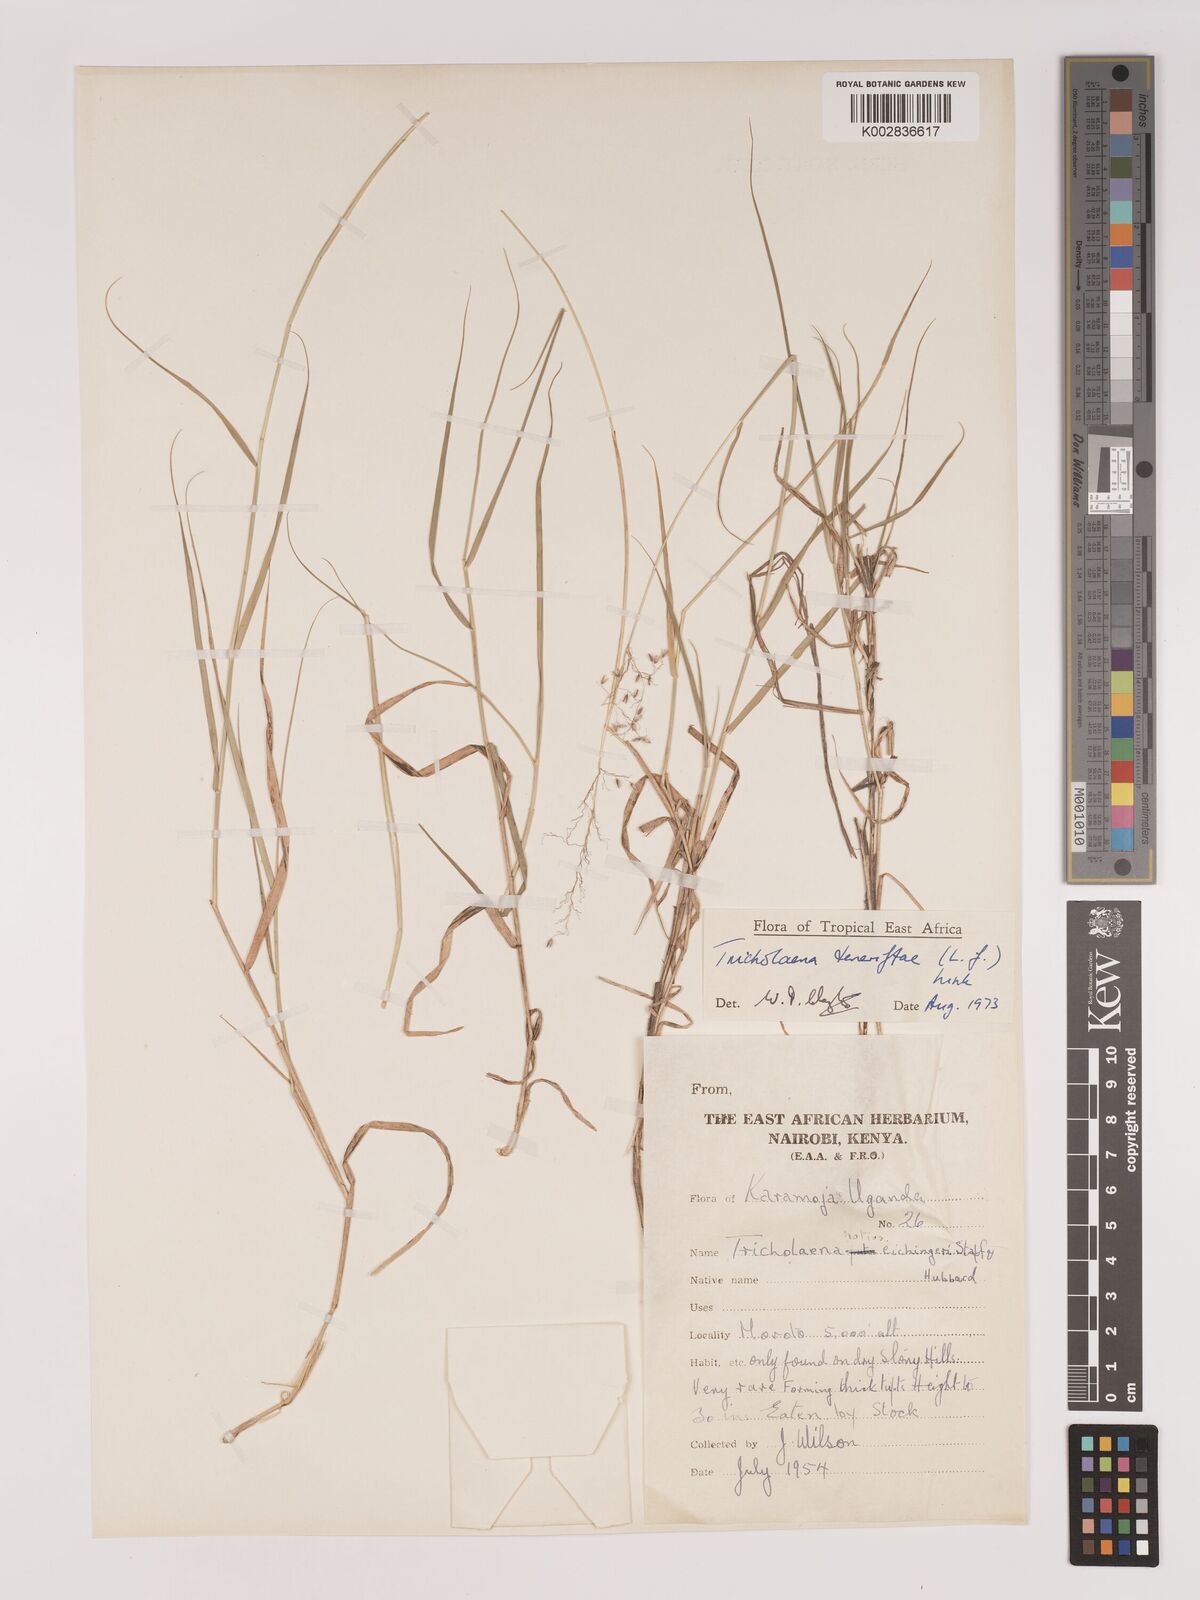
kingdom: Plantae
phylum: Tracheophyta
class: Liliopsida
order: Poales
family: Poaceae
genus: Tricholaena
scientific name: Tricholaena teneriffae
